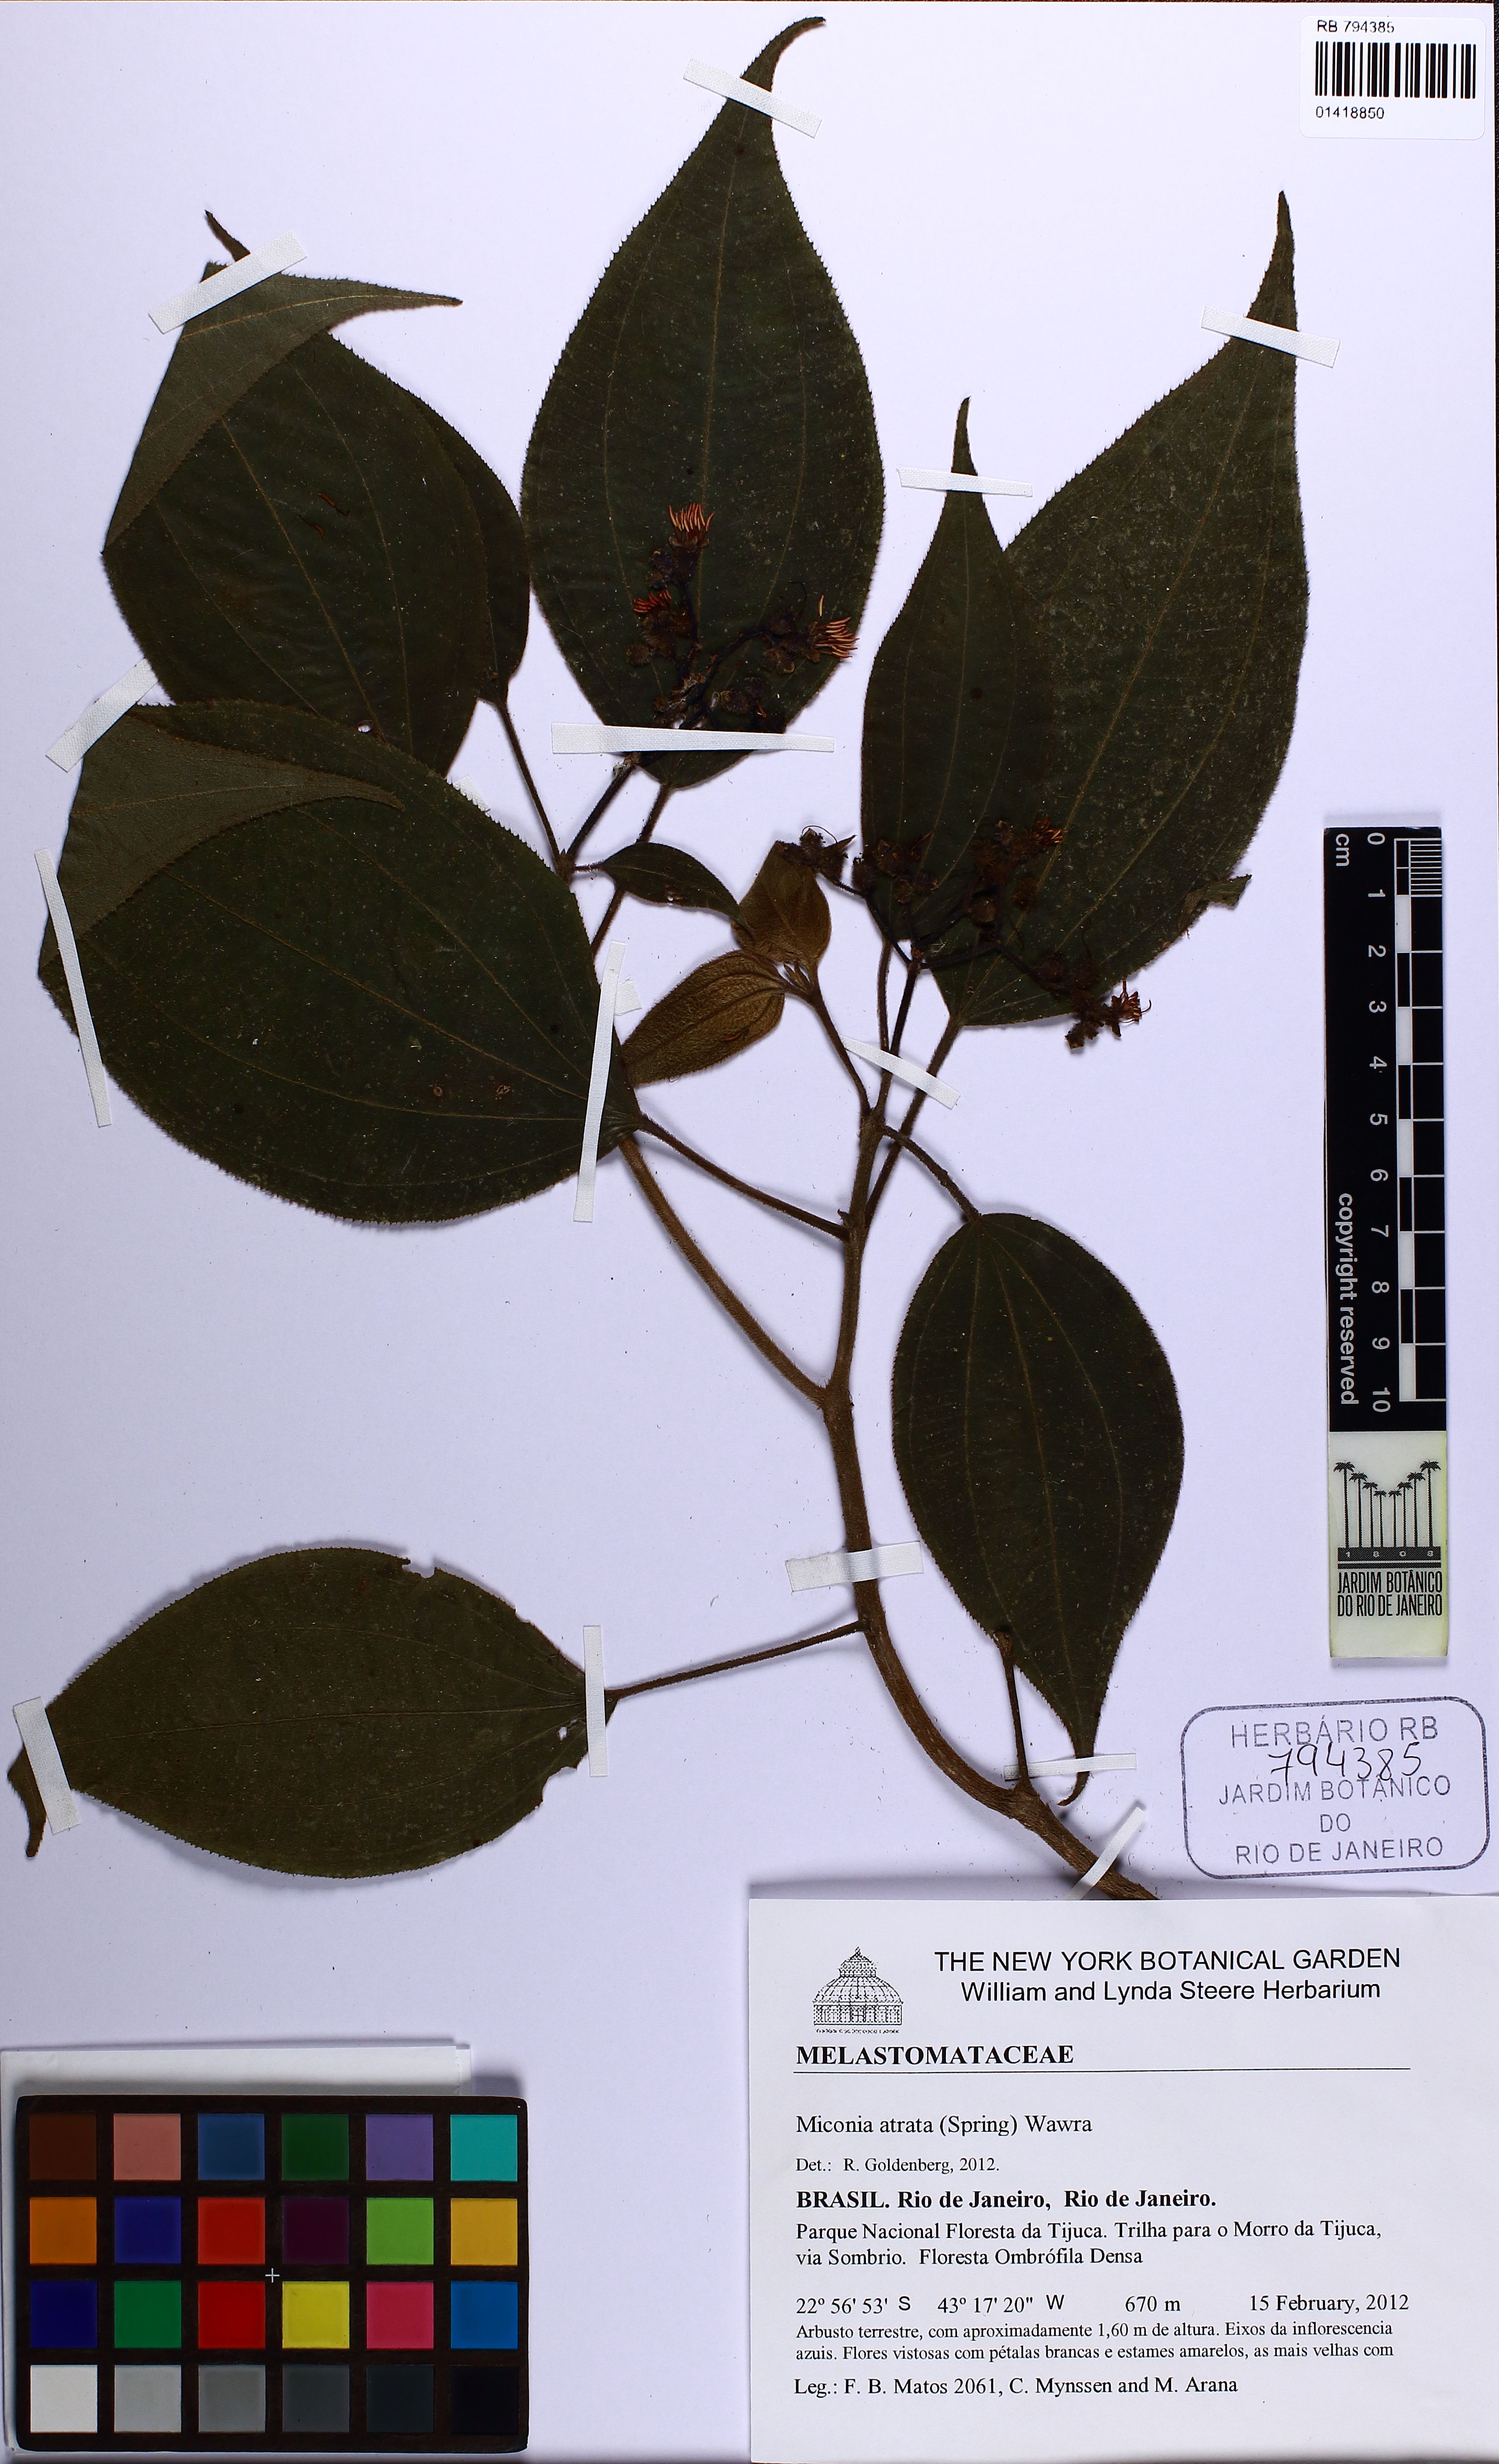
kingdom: Plantae
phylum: Tracheophyta
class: Magnoliopsida
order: Myrtales
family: Melastomataceae
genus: Miconia
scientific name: Miconia atrata
